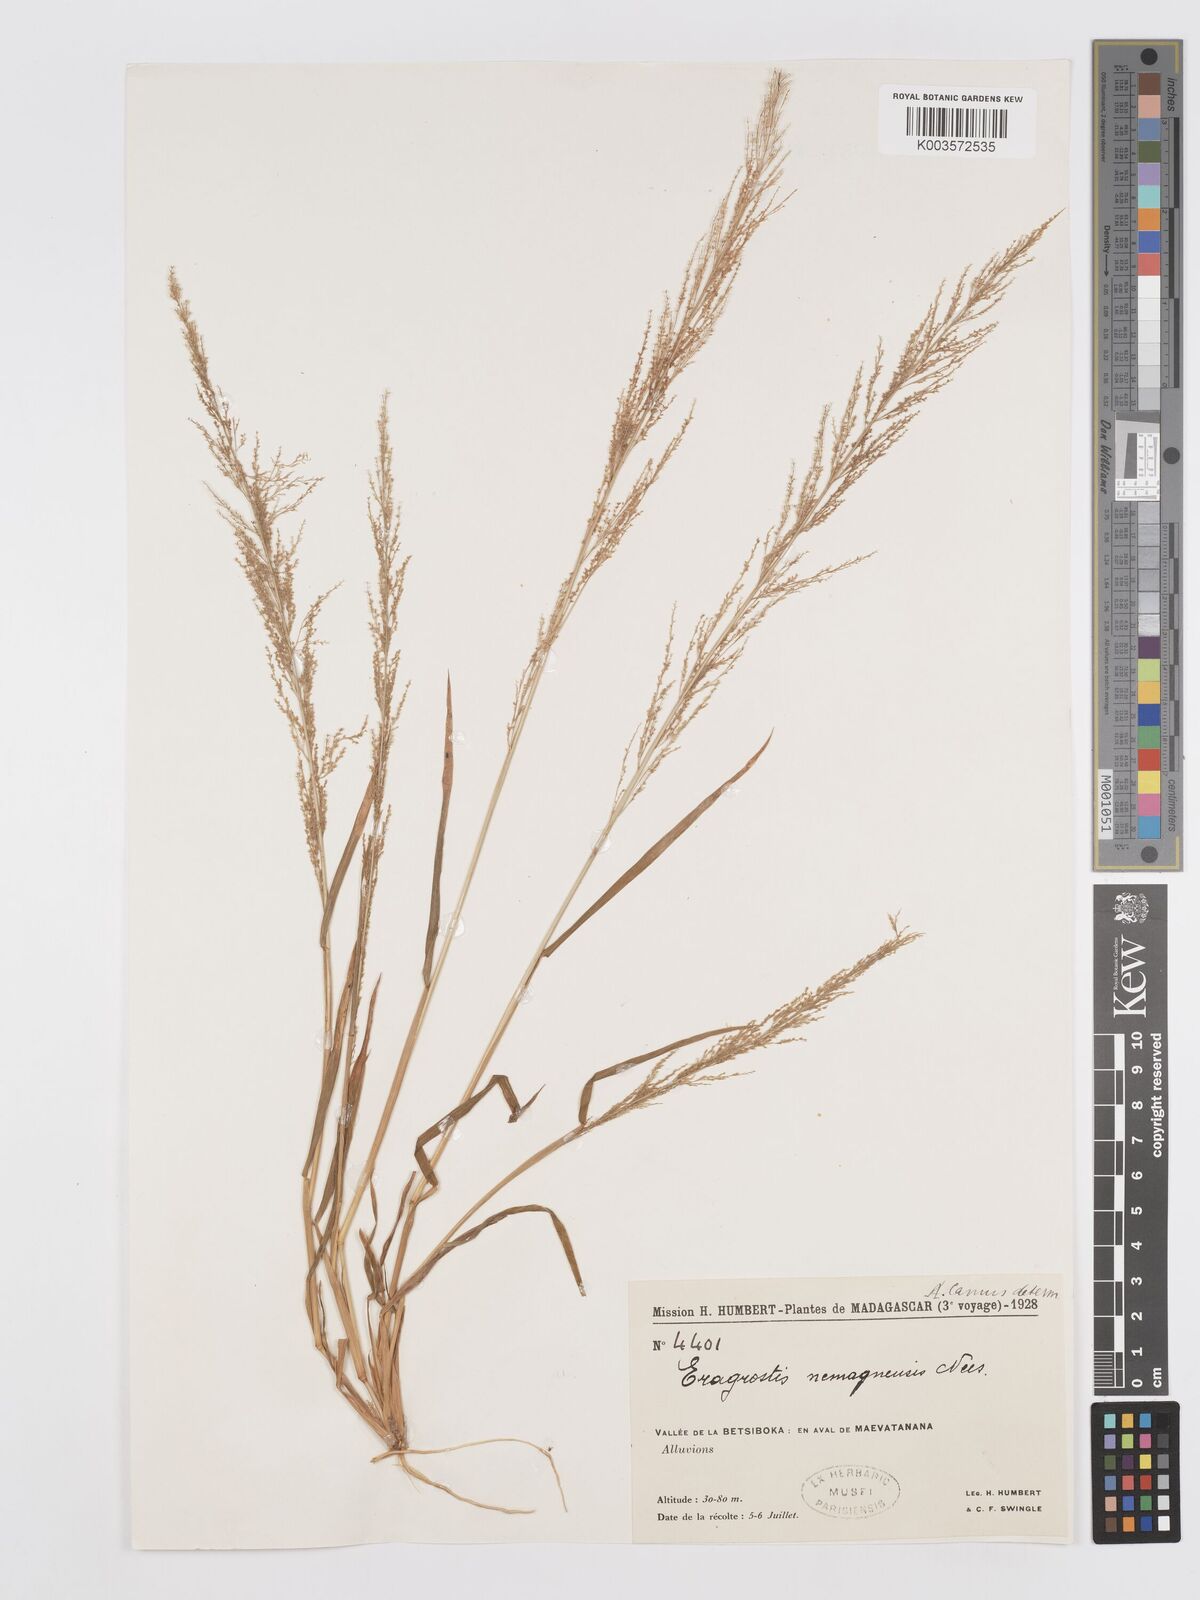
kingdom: Plantae
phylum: Tracheophyta
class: Liliopsida
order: Poales
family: Poaceae
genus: Eragrostis
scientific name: Eragrostis japonica
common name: Pond lovegrass
